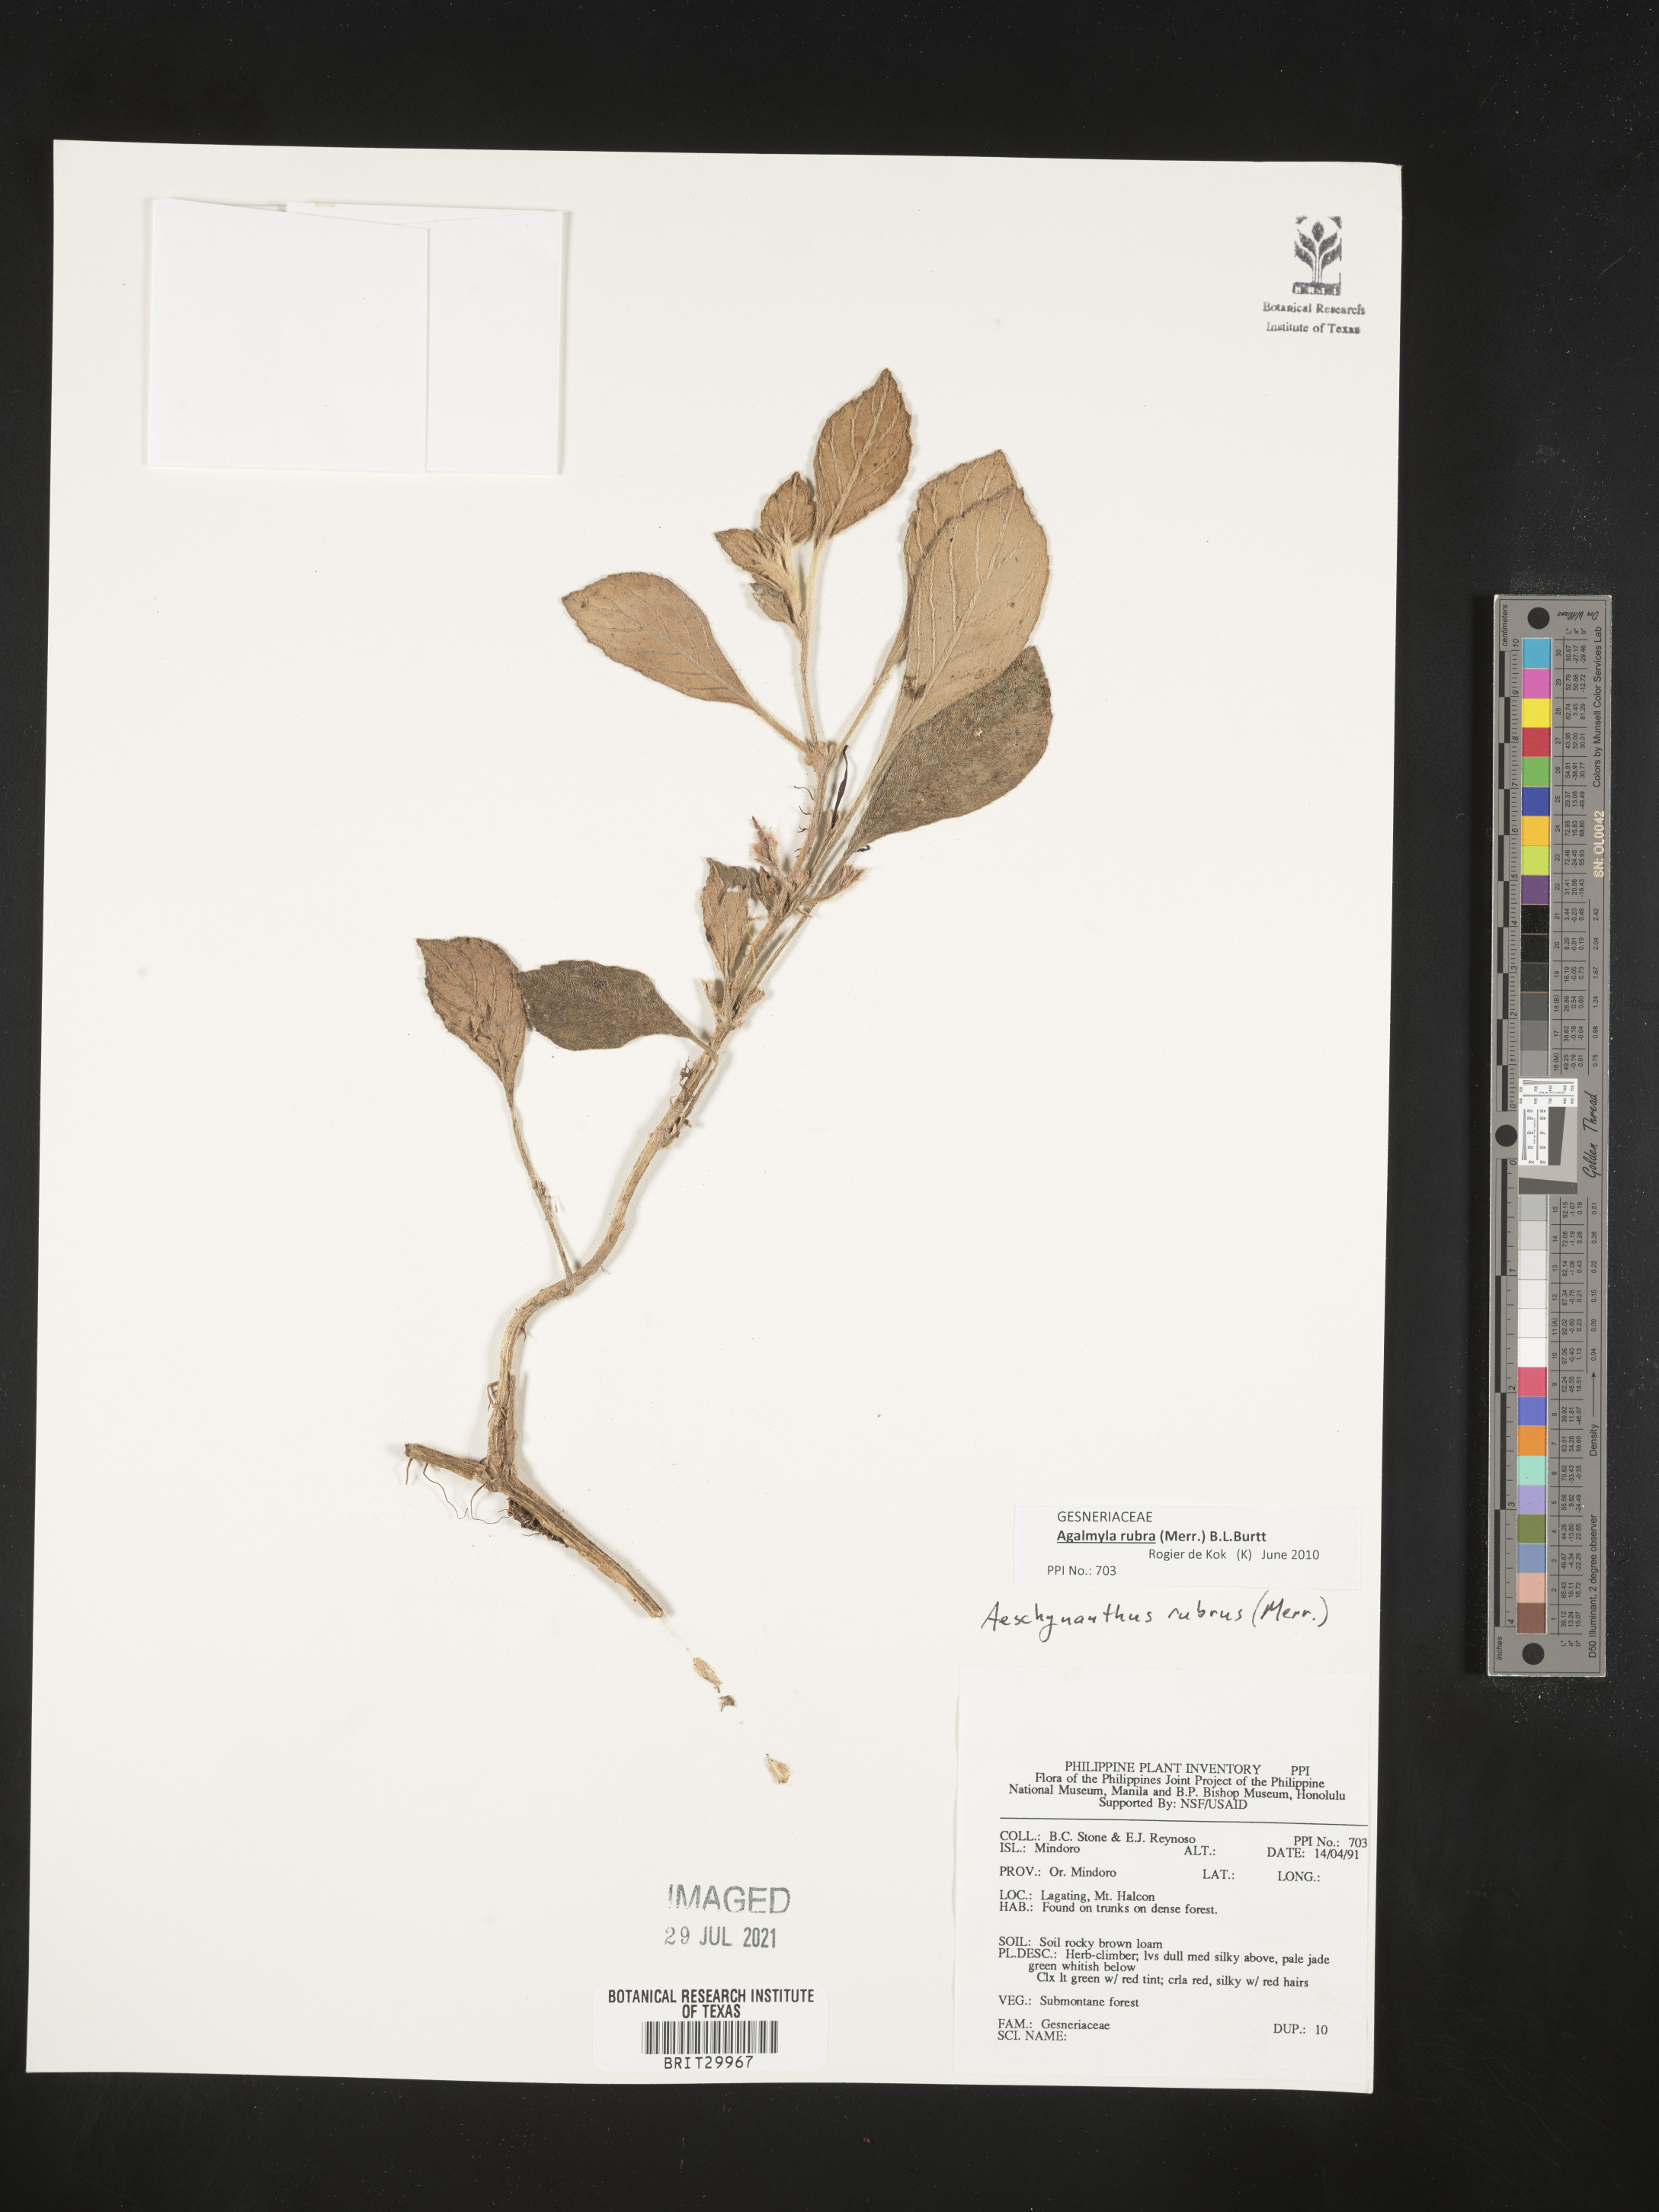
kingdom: Plantae
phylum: Tracheophyta
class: Magnoliopsida
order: Lamiales
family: Gesneriaceae
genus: Aeschynanthus
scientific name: Aeschynanthus
